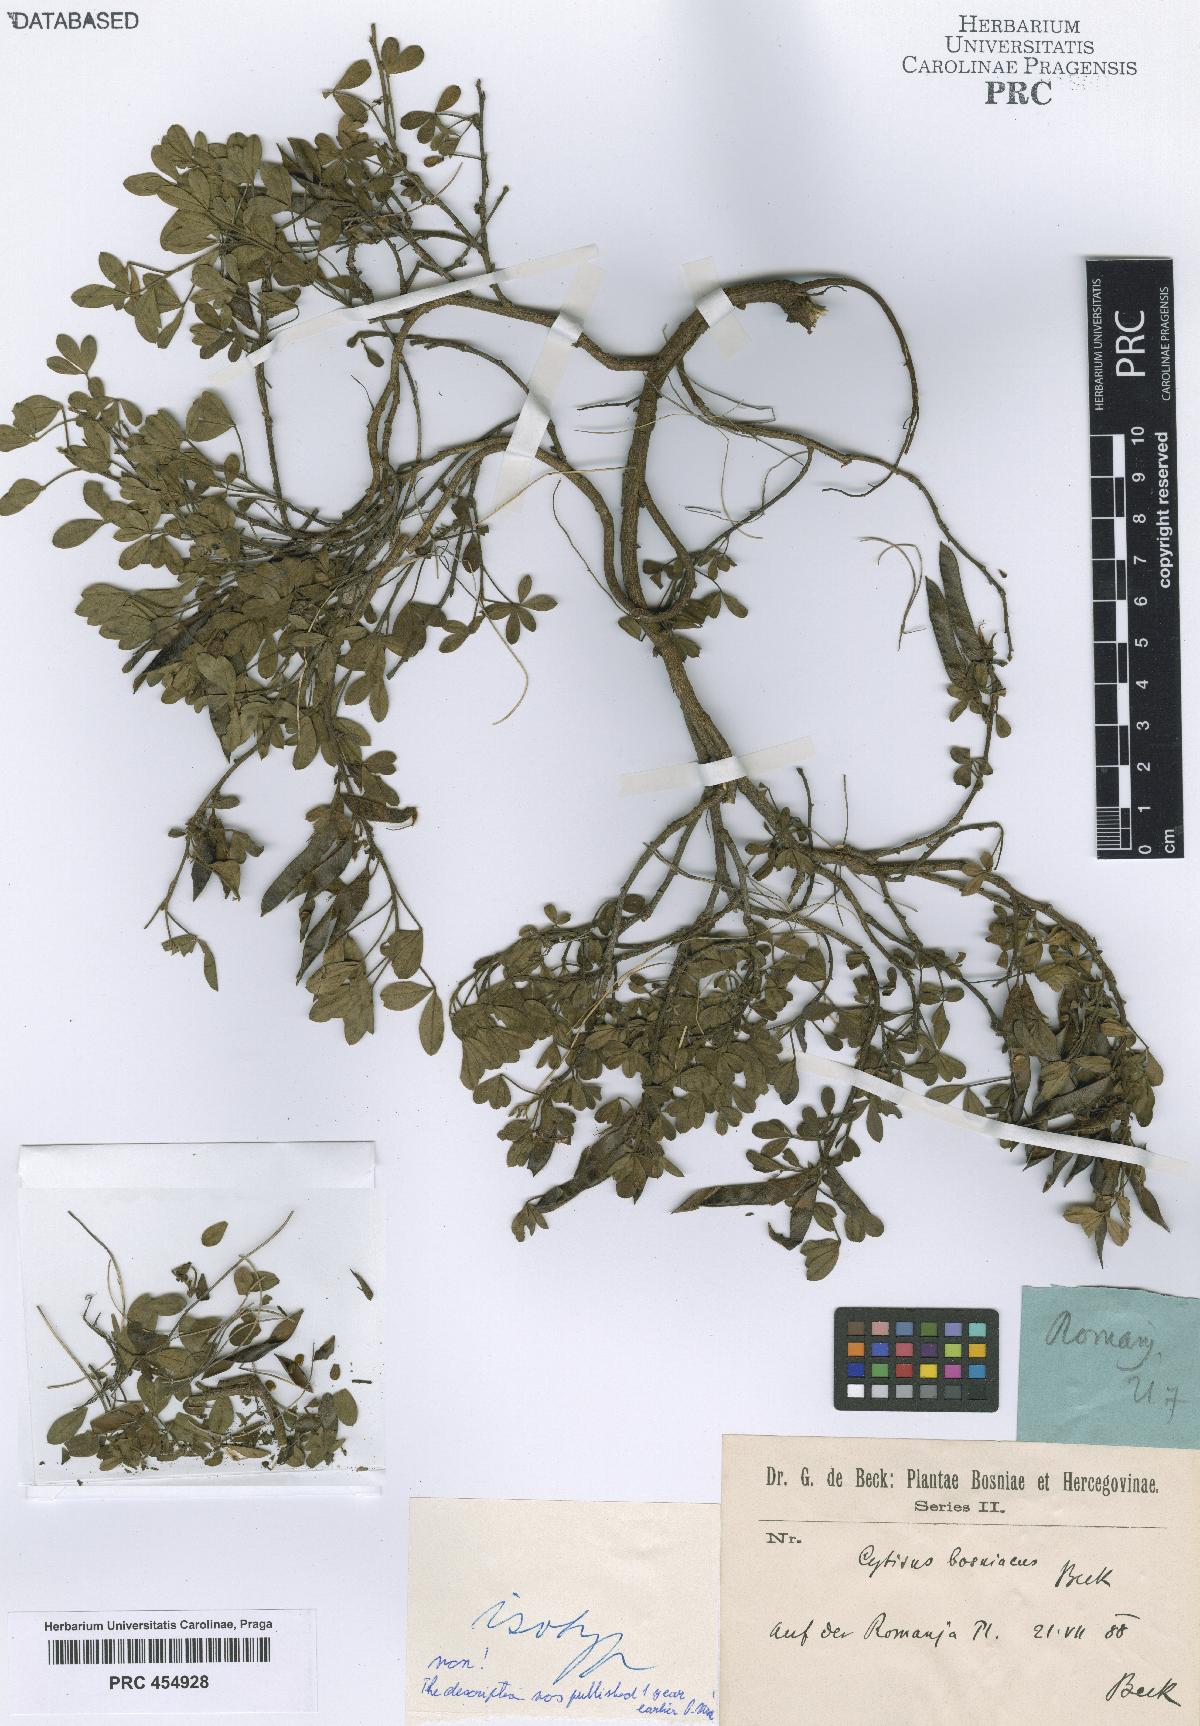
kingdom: Plantae
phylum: Tracheophyta
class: Magnoliopsida
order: Fabales
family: Fabaceae
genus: Chamaecytisus
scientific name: Chamaecytisus hirsutus
